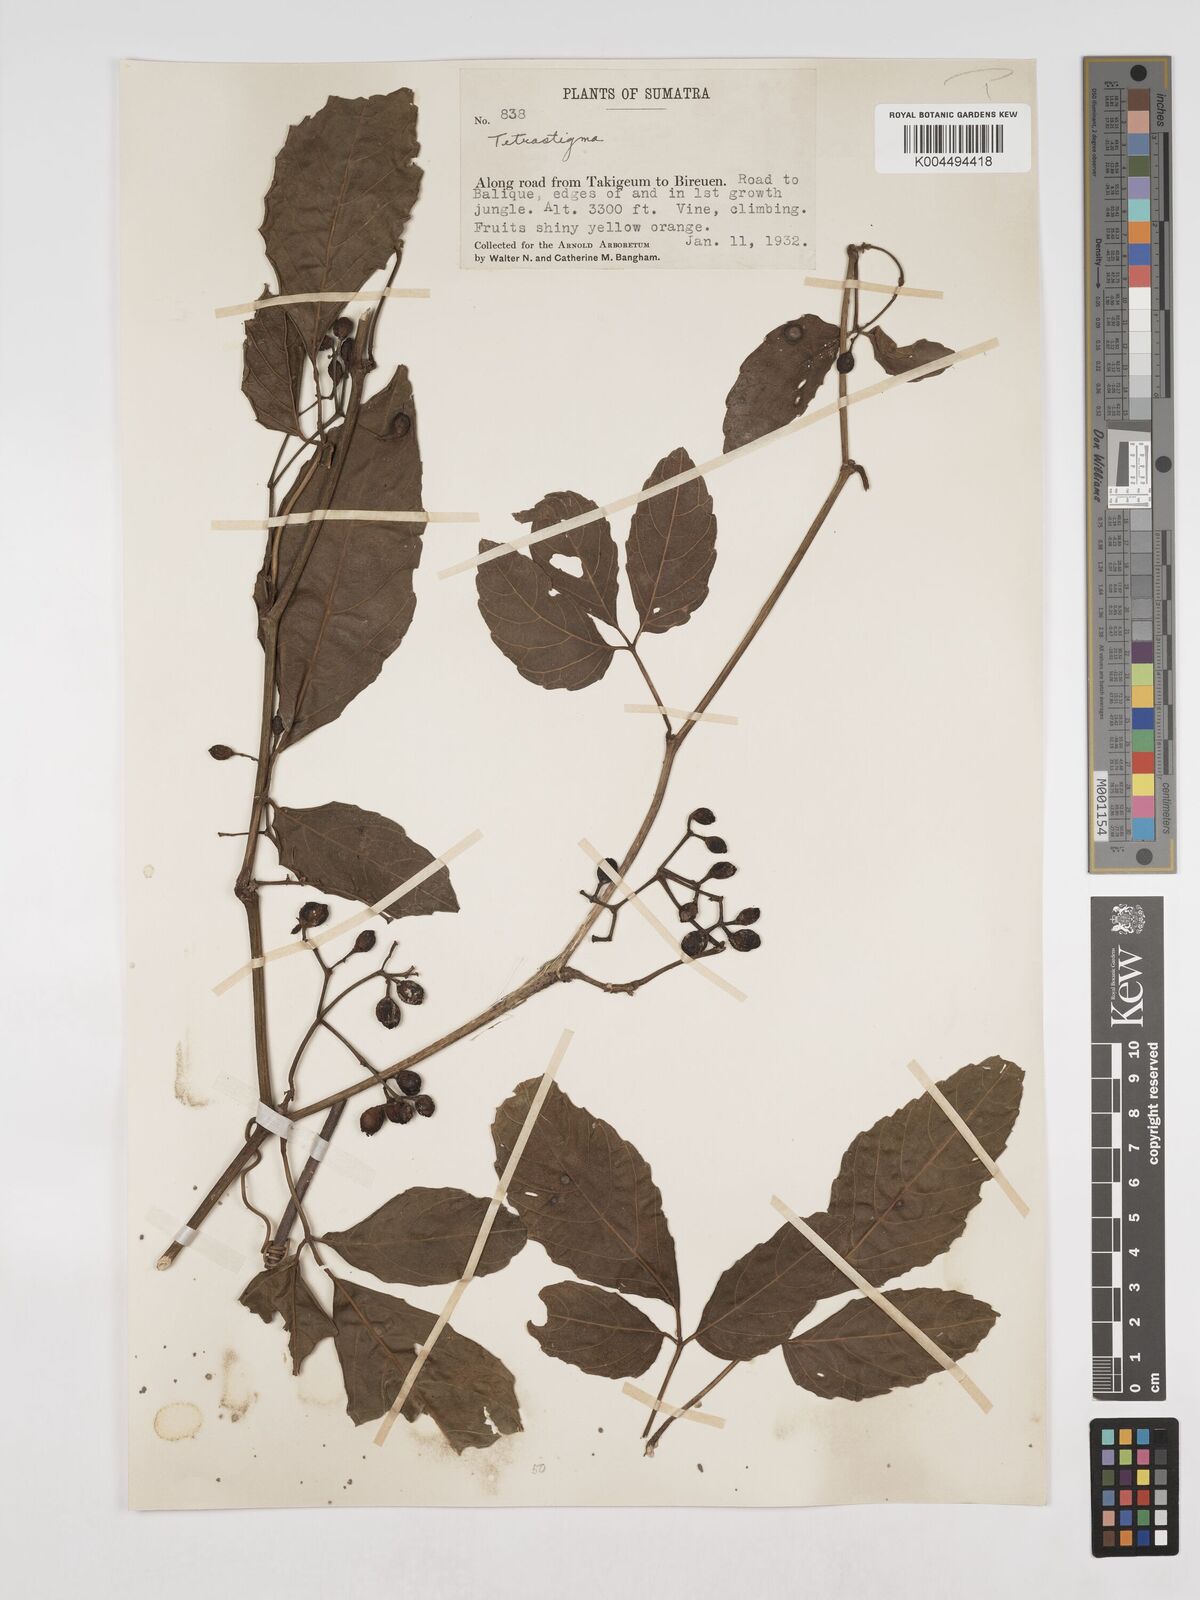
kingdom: Plantae
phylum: Tracheophyta
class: Magnoliopsida
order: Vitales
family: Vitaceae
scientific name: Vitaceae
